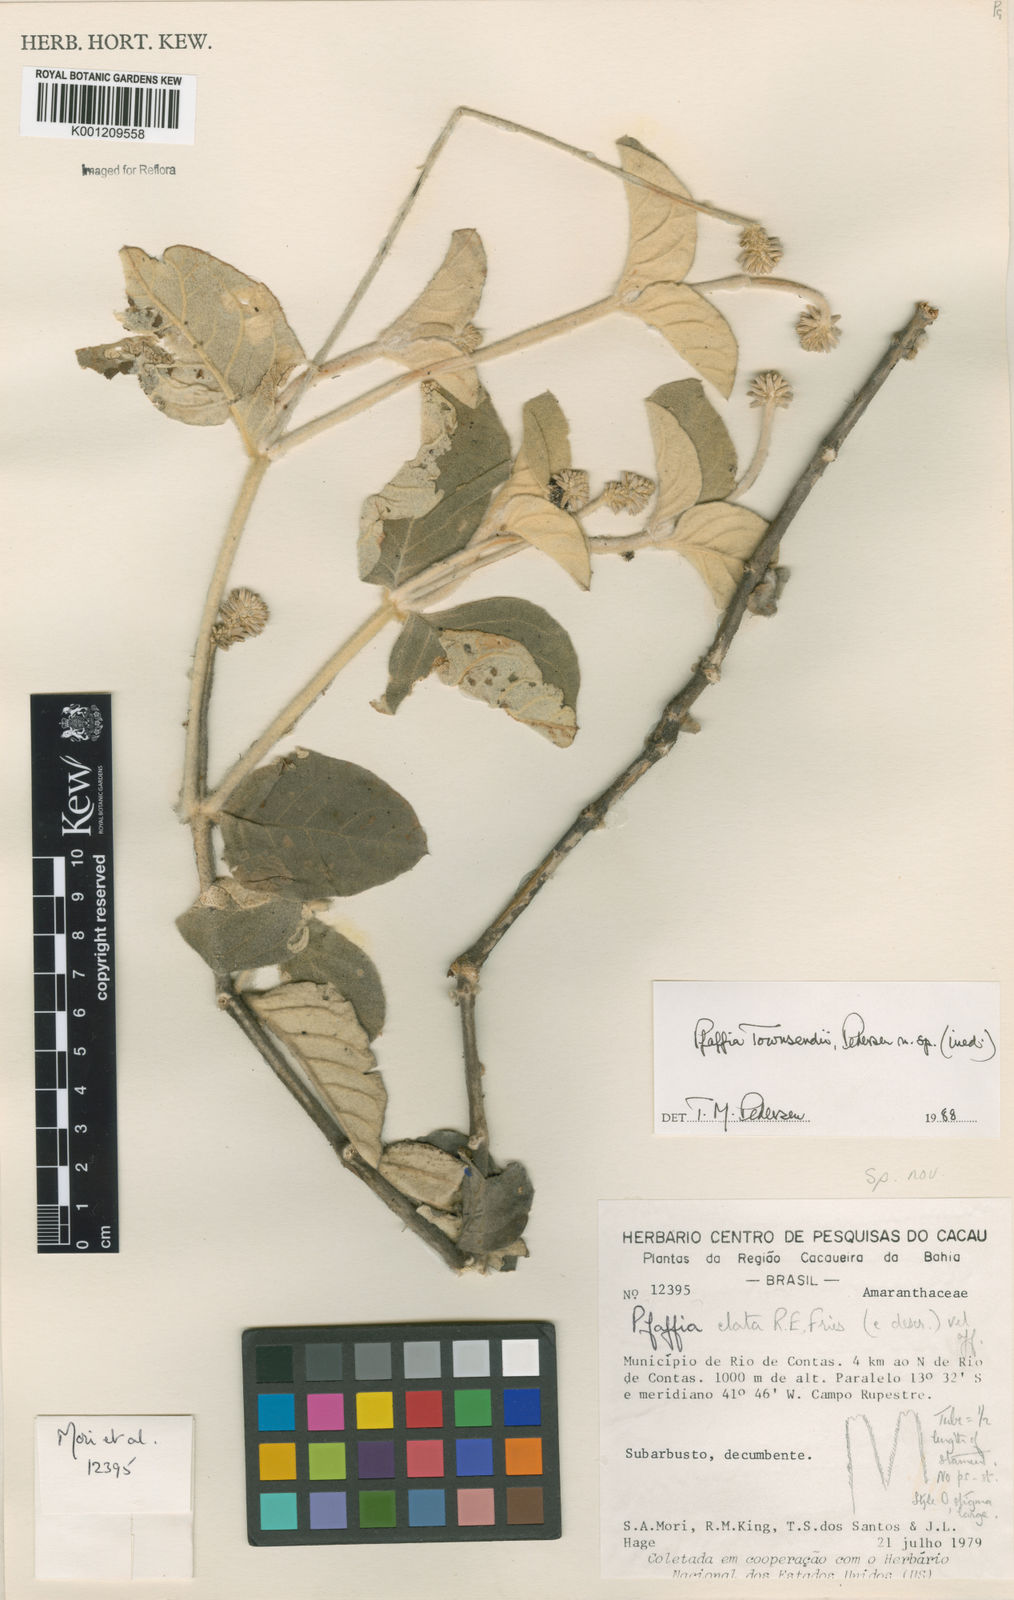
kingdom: Plantae
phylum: Tracheophyta
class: Magnoliopsida
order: Caryophyllales
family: Amaranthaceae
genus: Pfaffia
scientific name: Pfaffia townsendii
